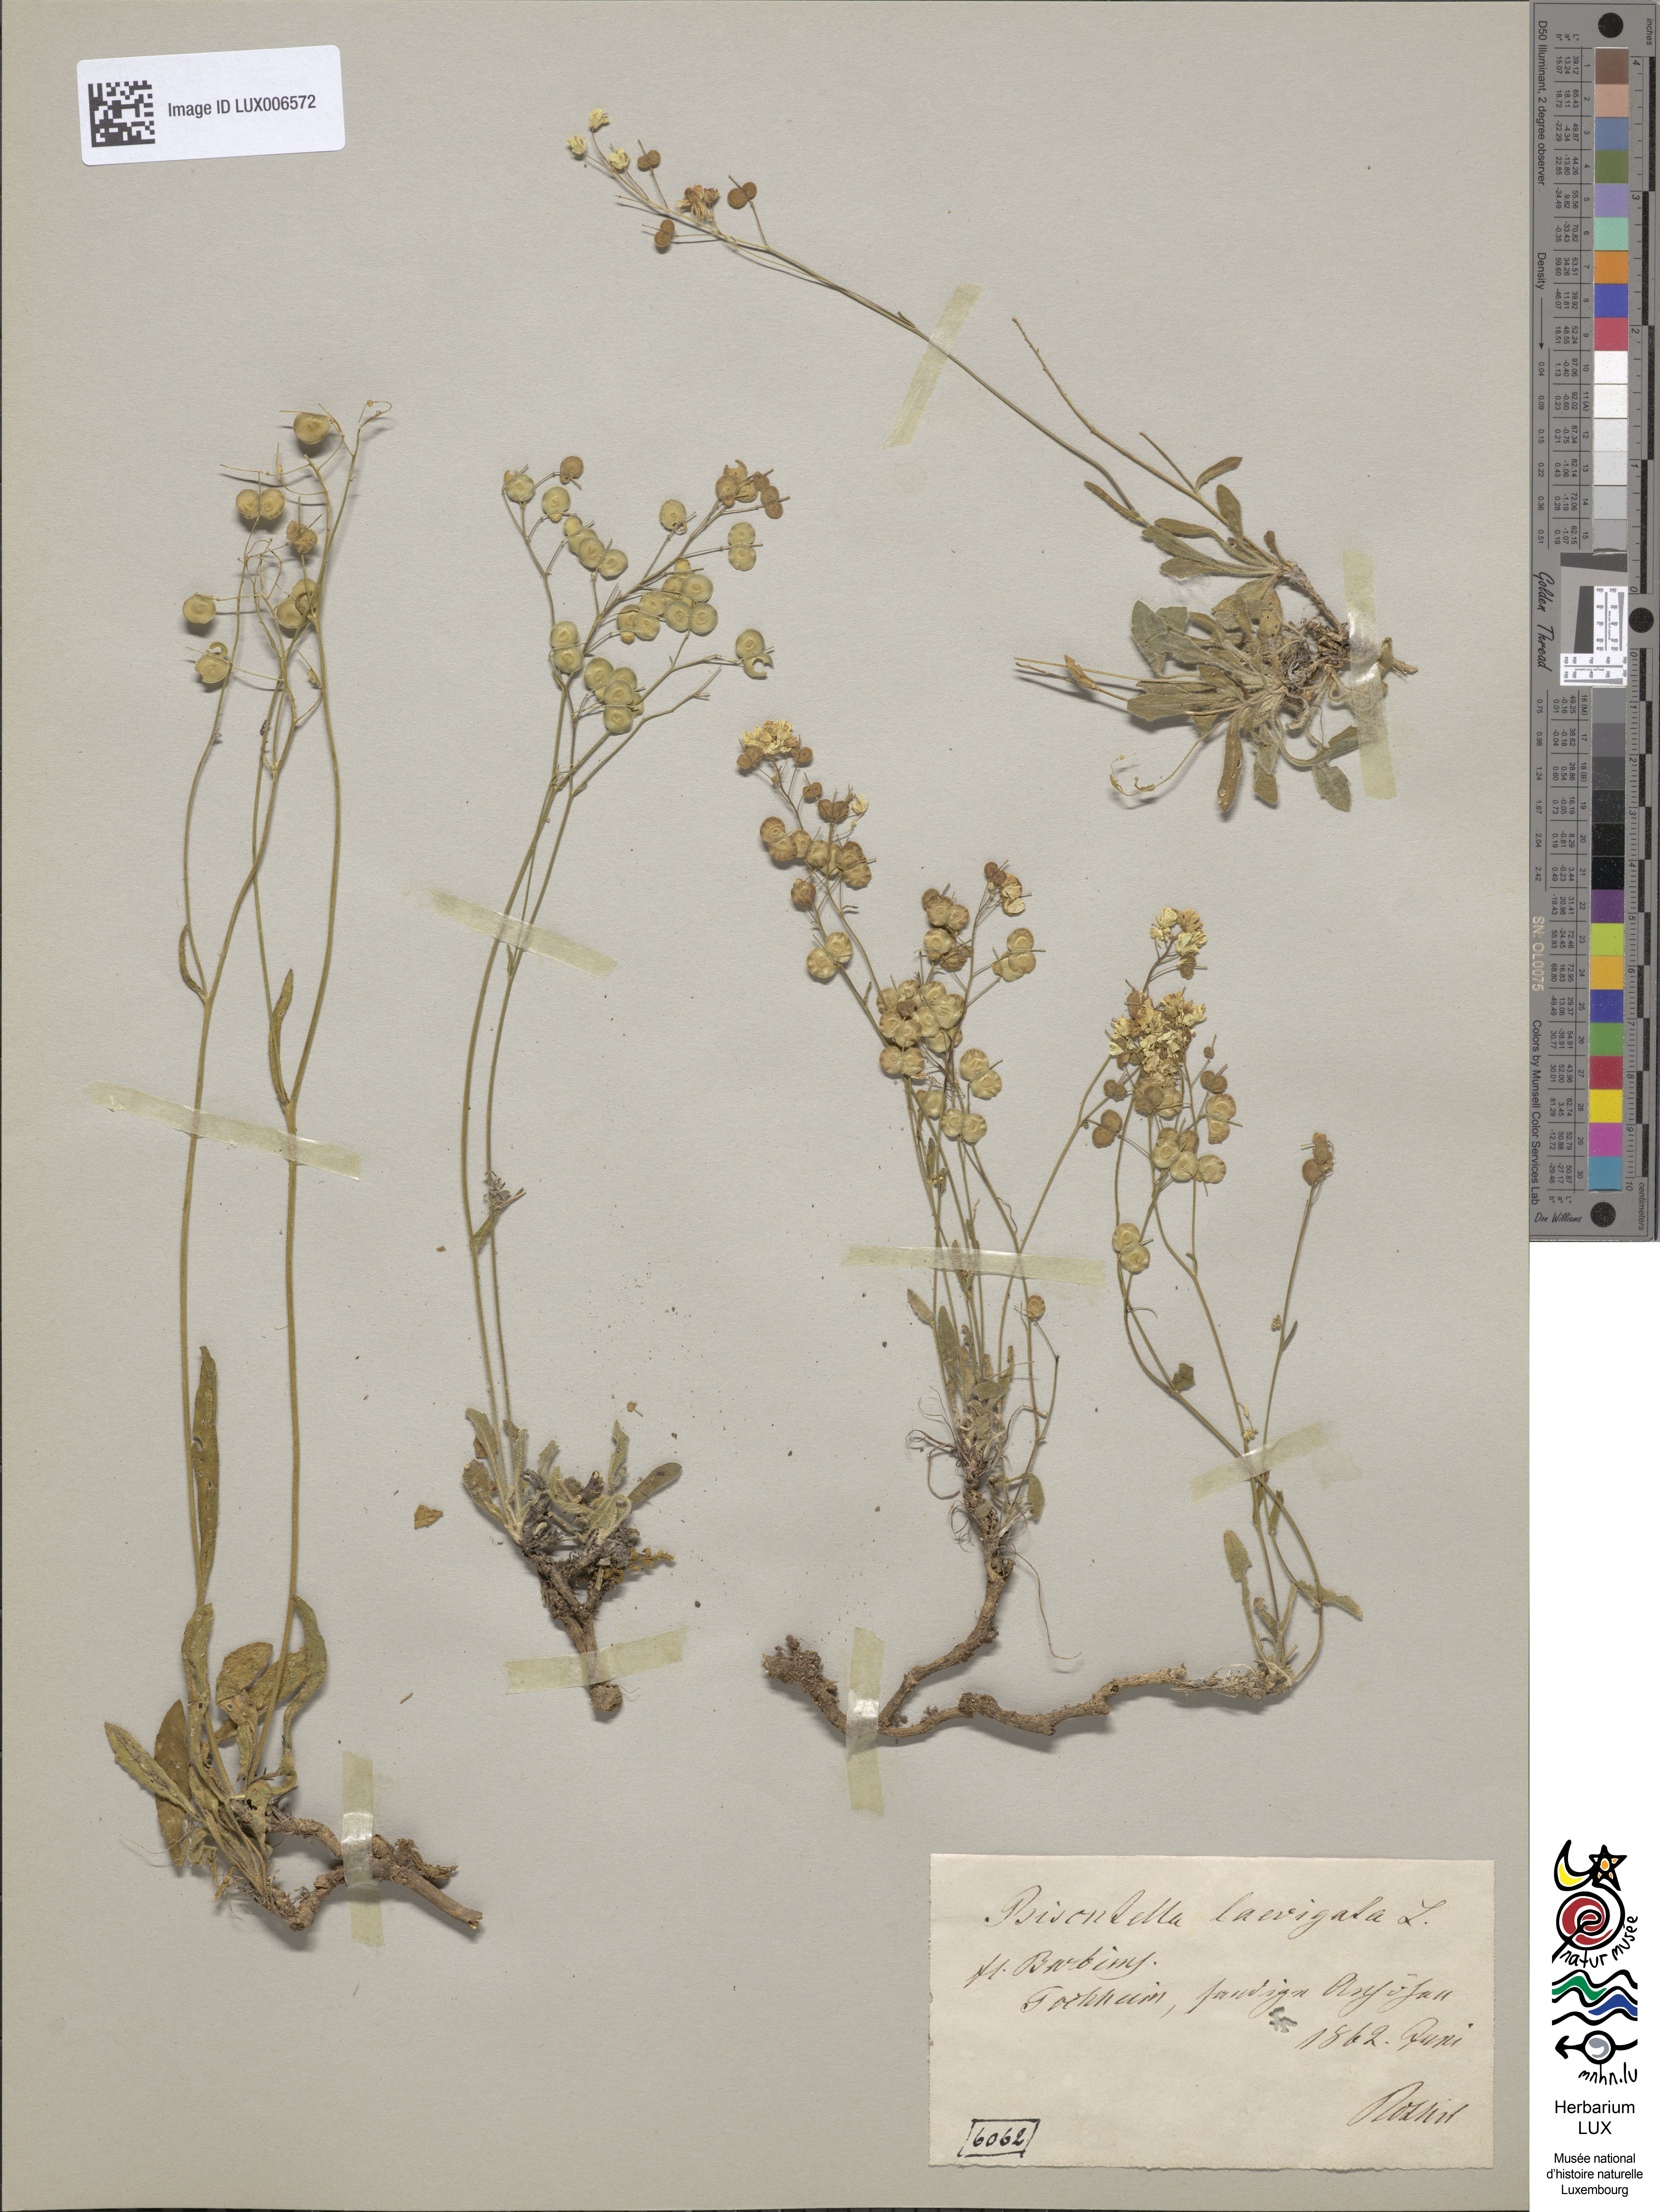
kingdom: Plantae
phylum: Tracheophyta
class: Magnoliopsida
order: Brassicales
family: Brassicaceae
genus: Biscutella
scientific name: Biscutella laevigata
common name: Buckler mustard
